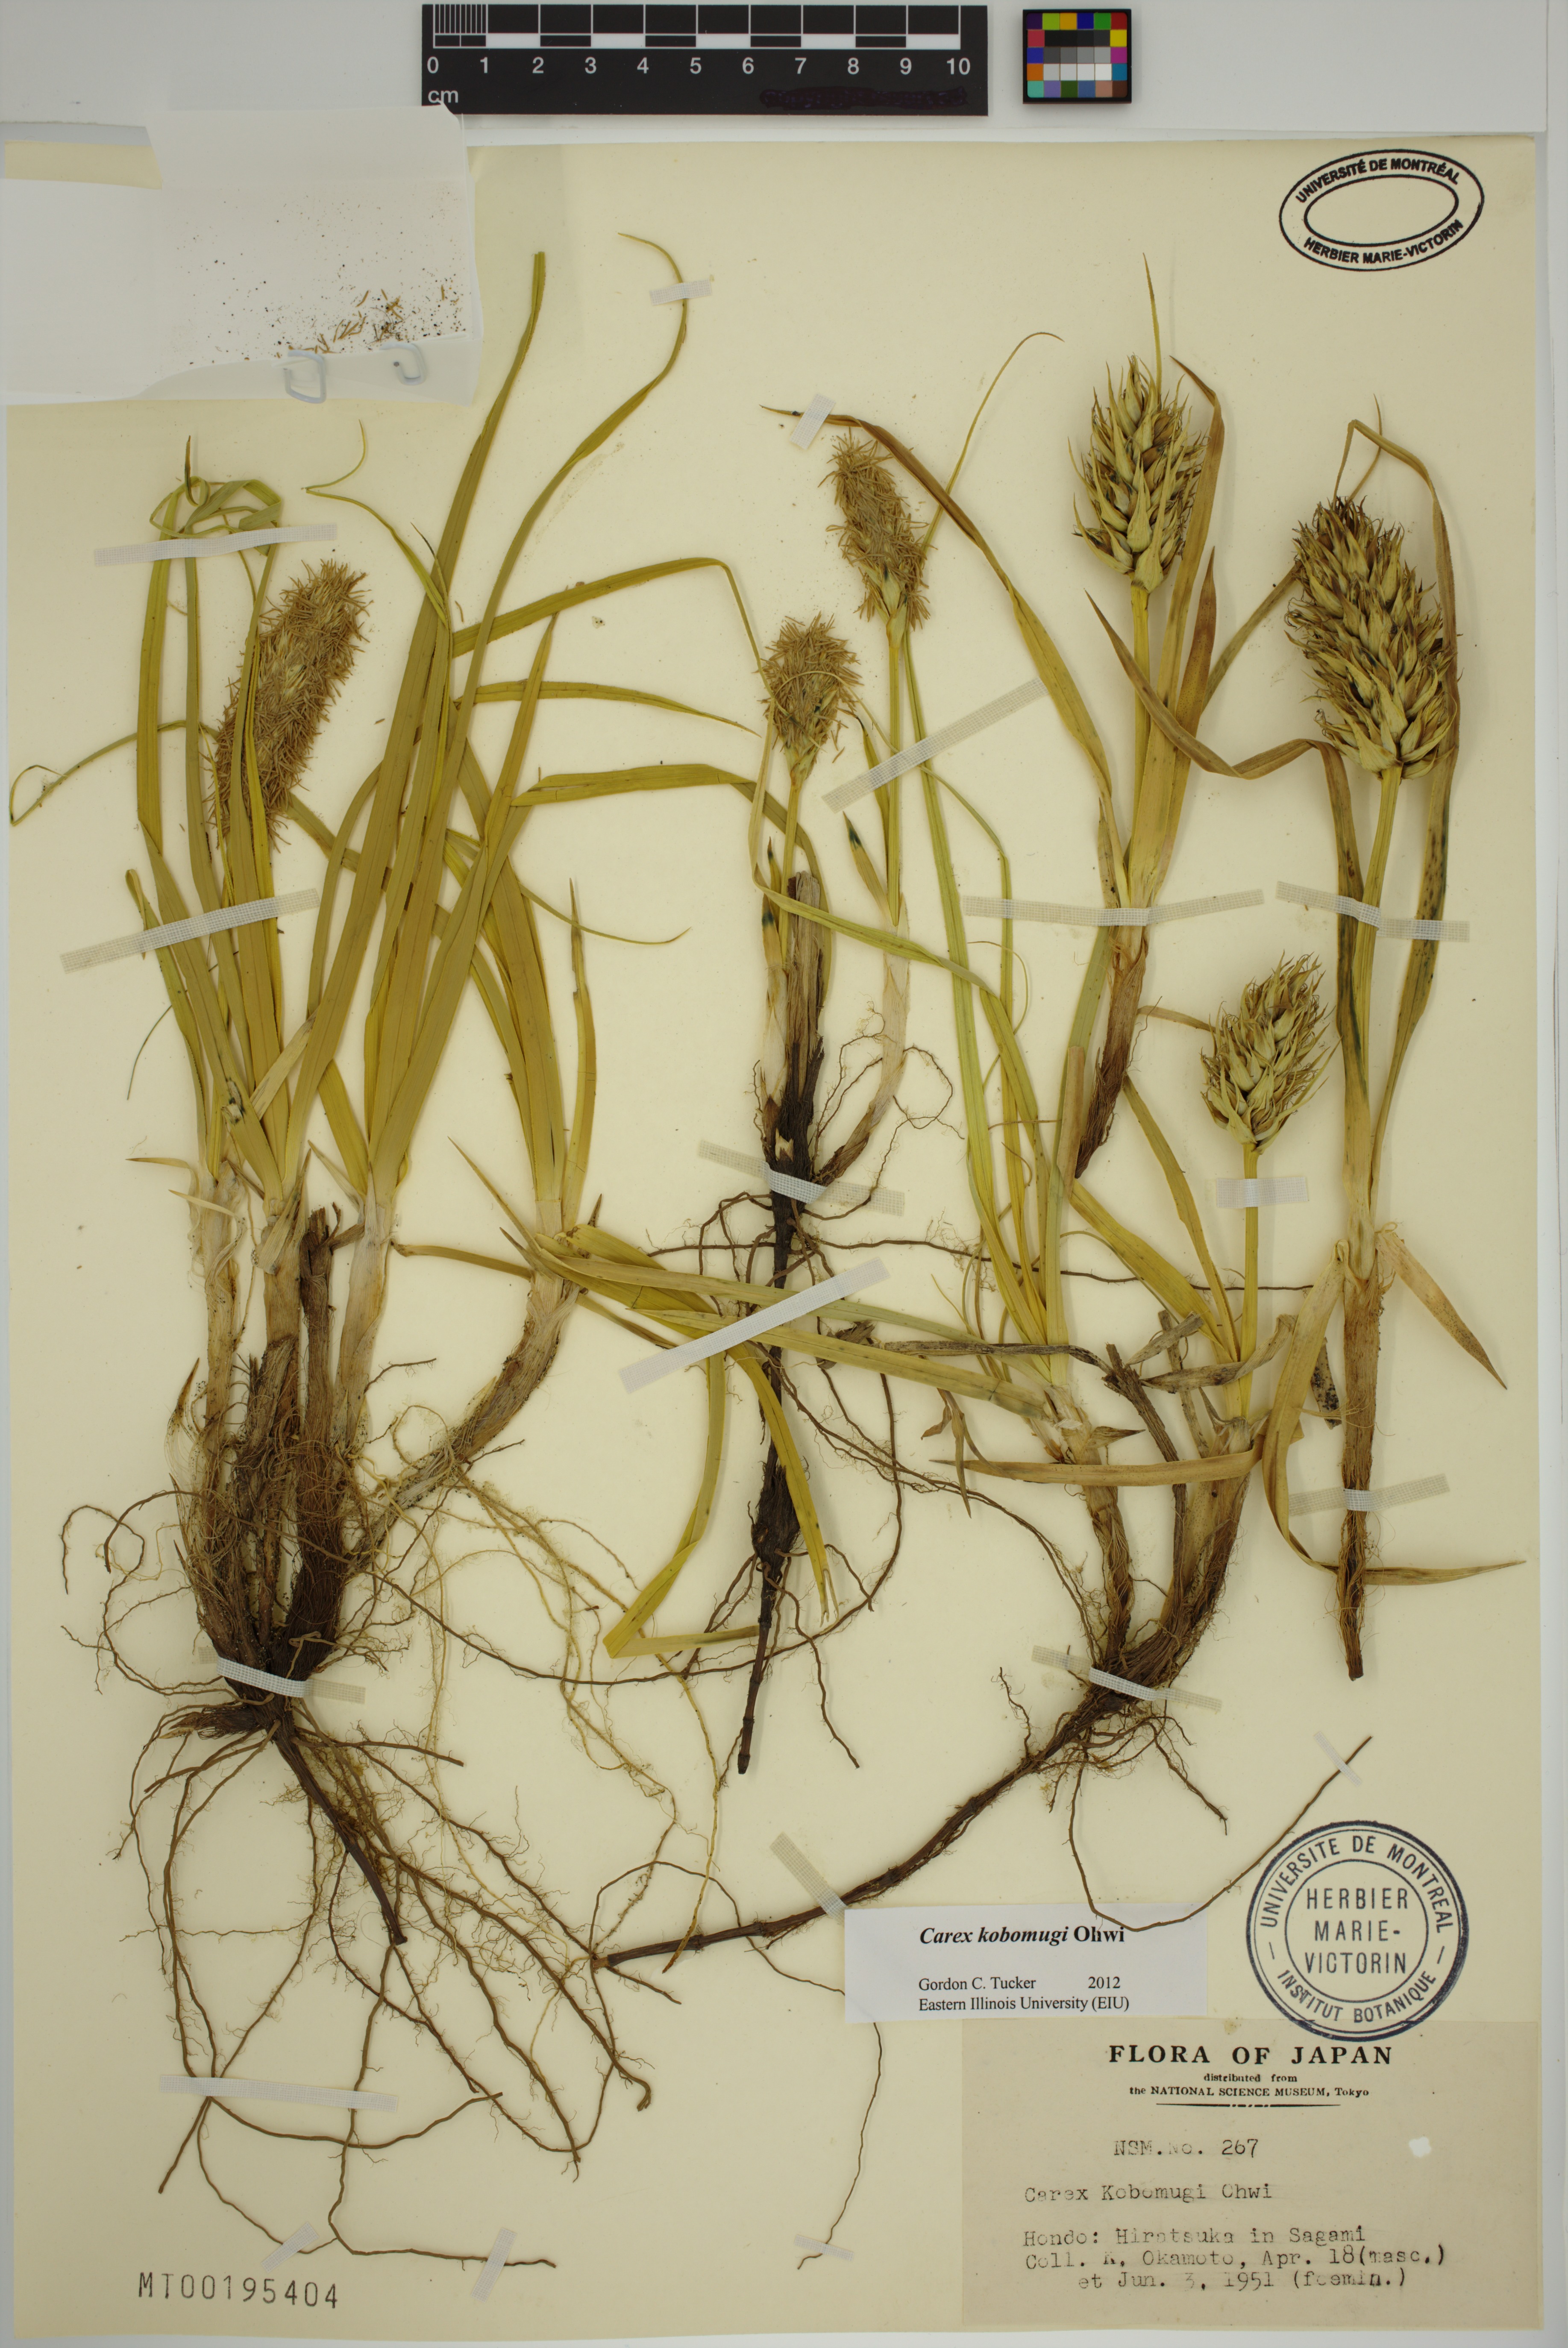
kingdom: Plantae
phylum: Tracheophyta
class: Liliopsida
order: Poales
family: Cyperaceae
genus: Carex
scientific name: Carex kobomugi
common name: Japanese sedge
